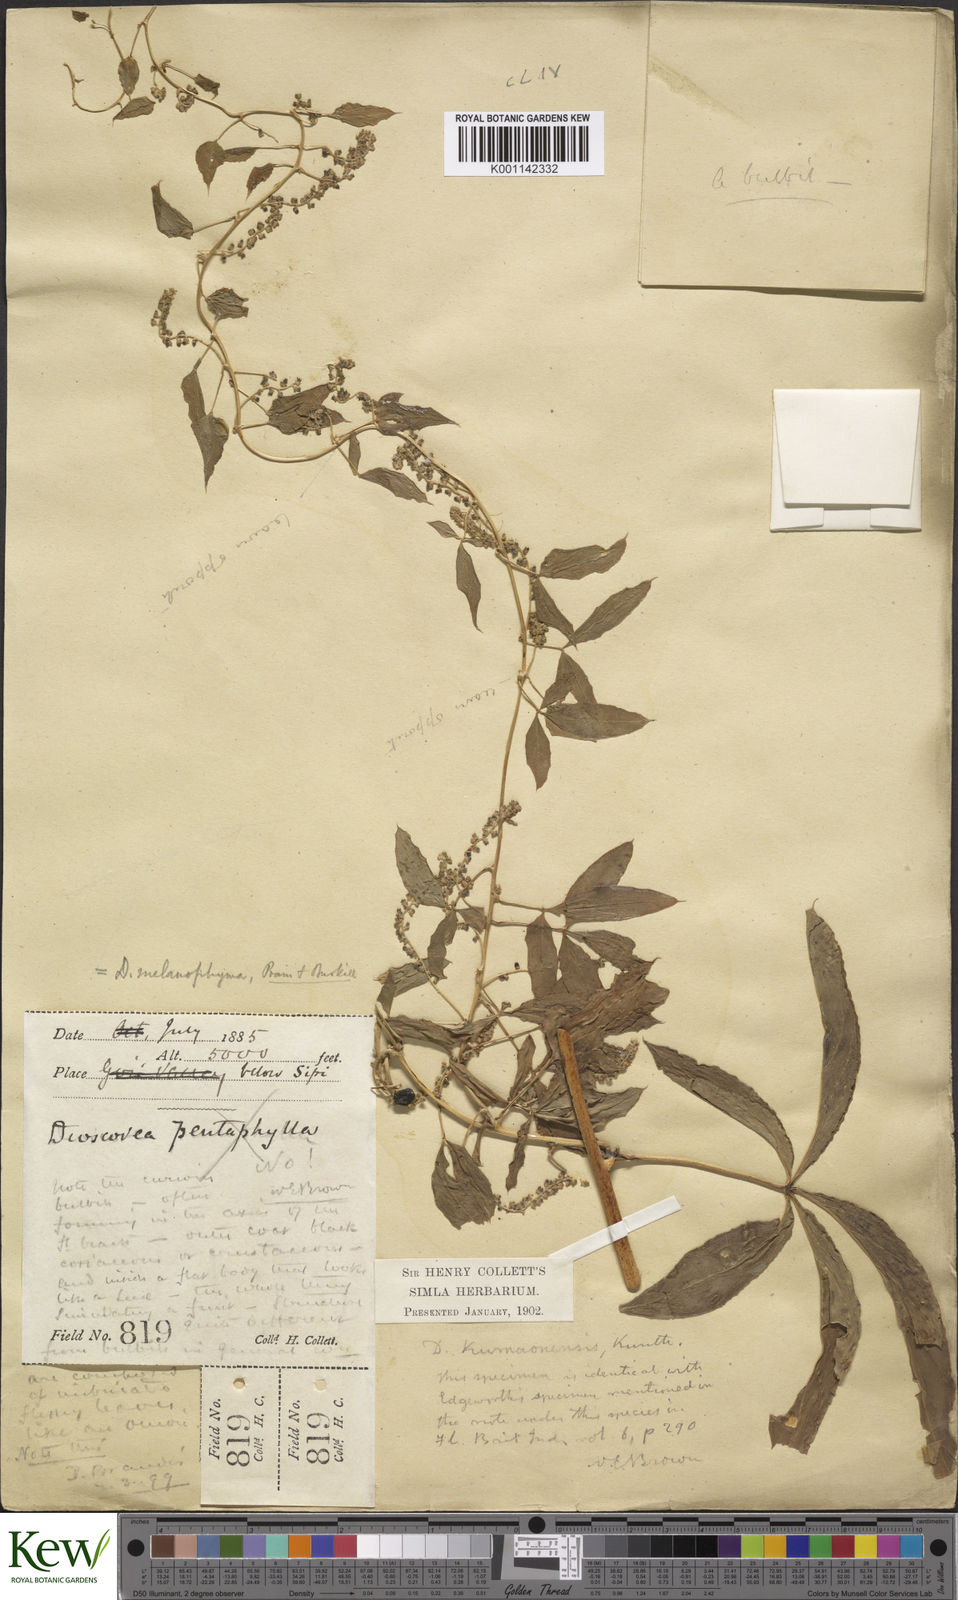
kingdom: Plantae
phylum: Tracheophyta
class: Liliopsida
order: Dioscoreales
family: Dioscoreaceae
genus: Dioscorea
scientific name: Dioscorea melanophyma
